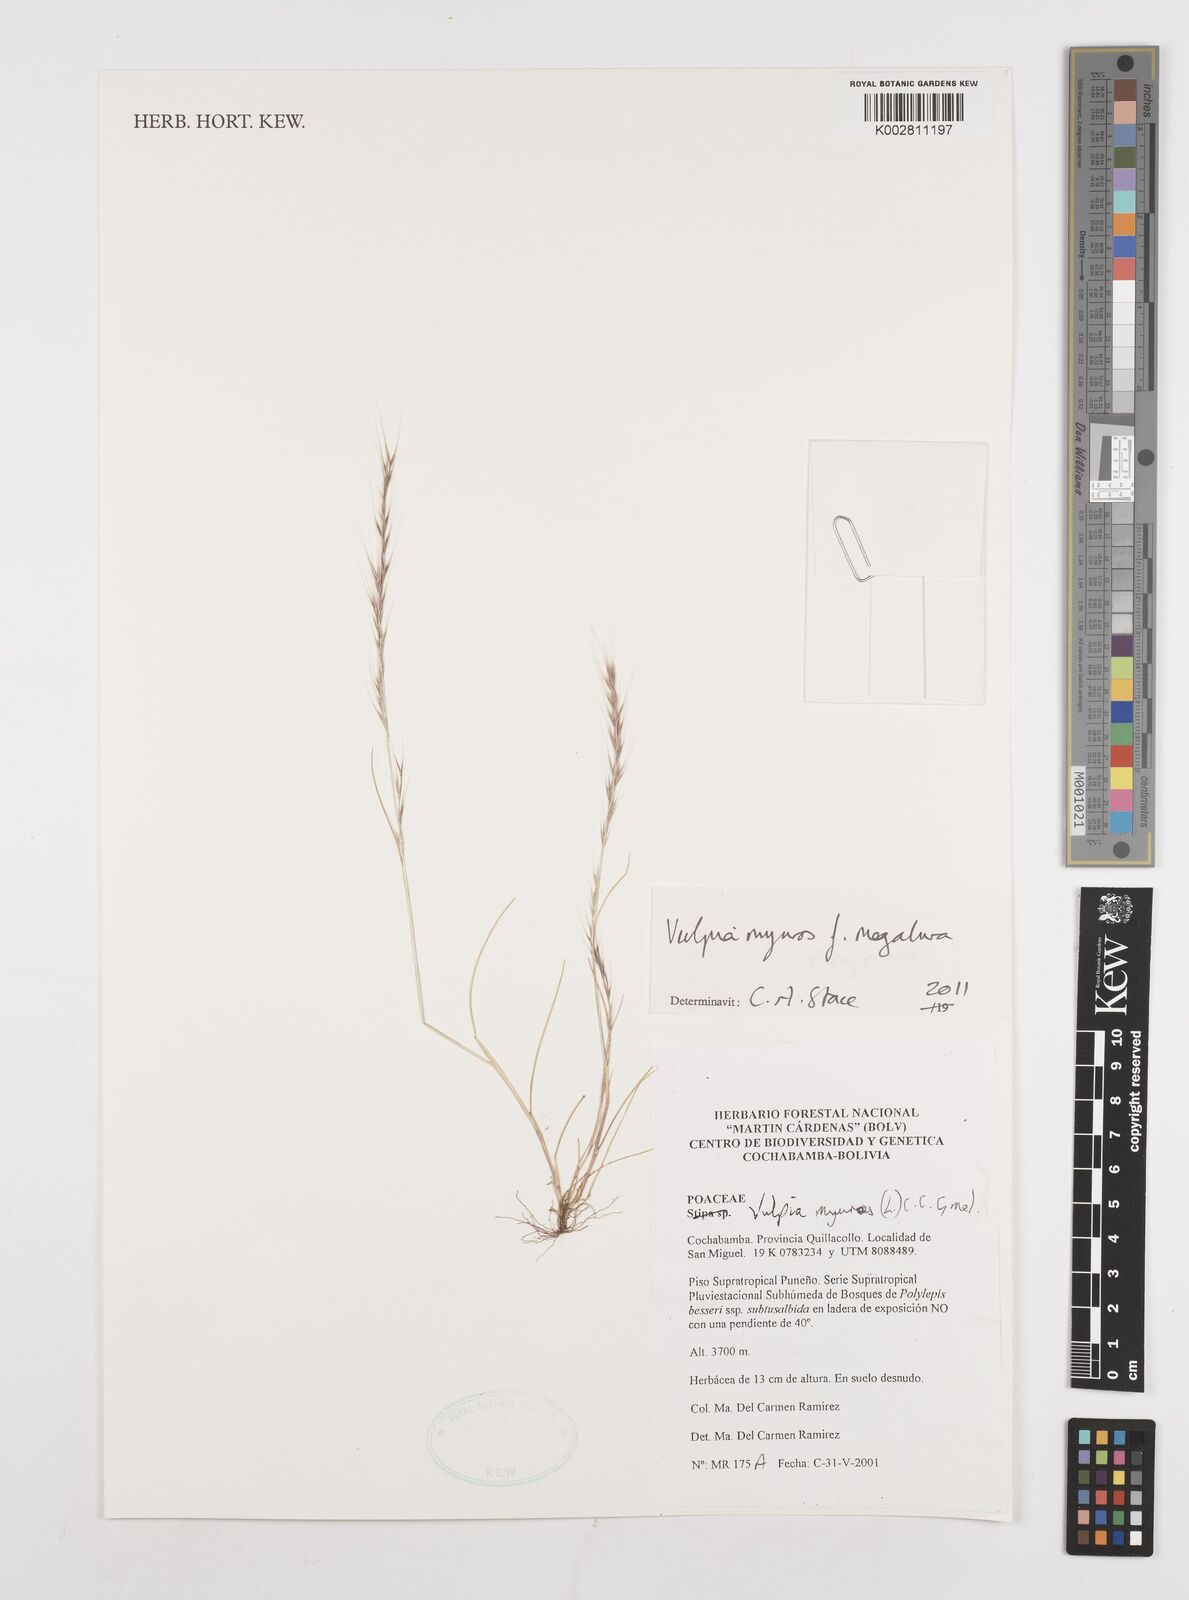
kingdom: Plantae
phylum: Tracheophyta
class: Liliopsida
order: Poales
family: Poaceae
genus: Festuca
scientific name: Festuca myuros
